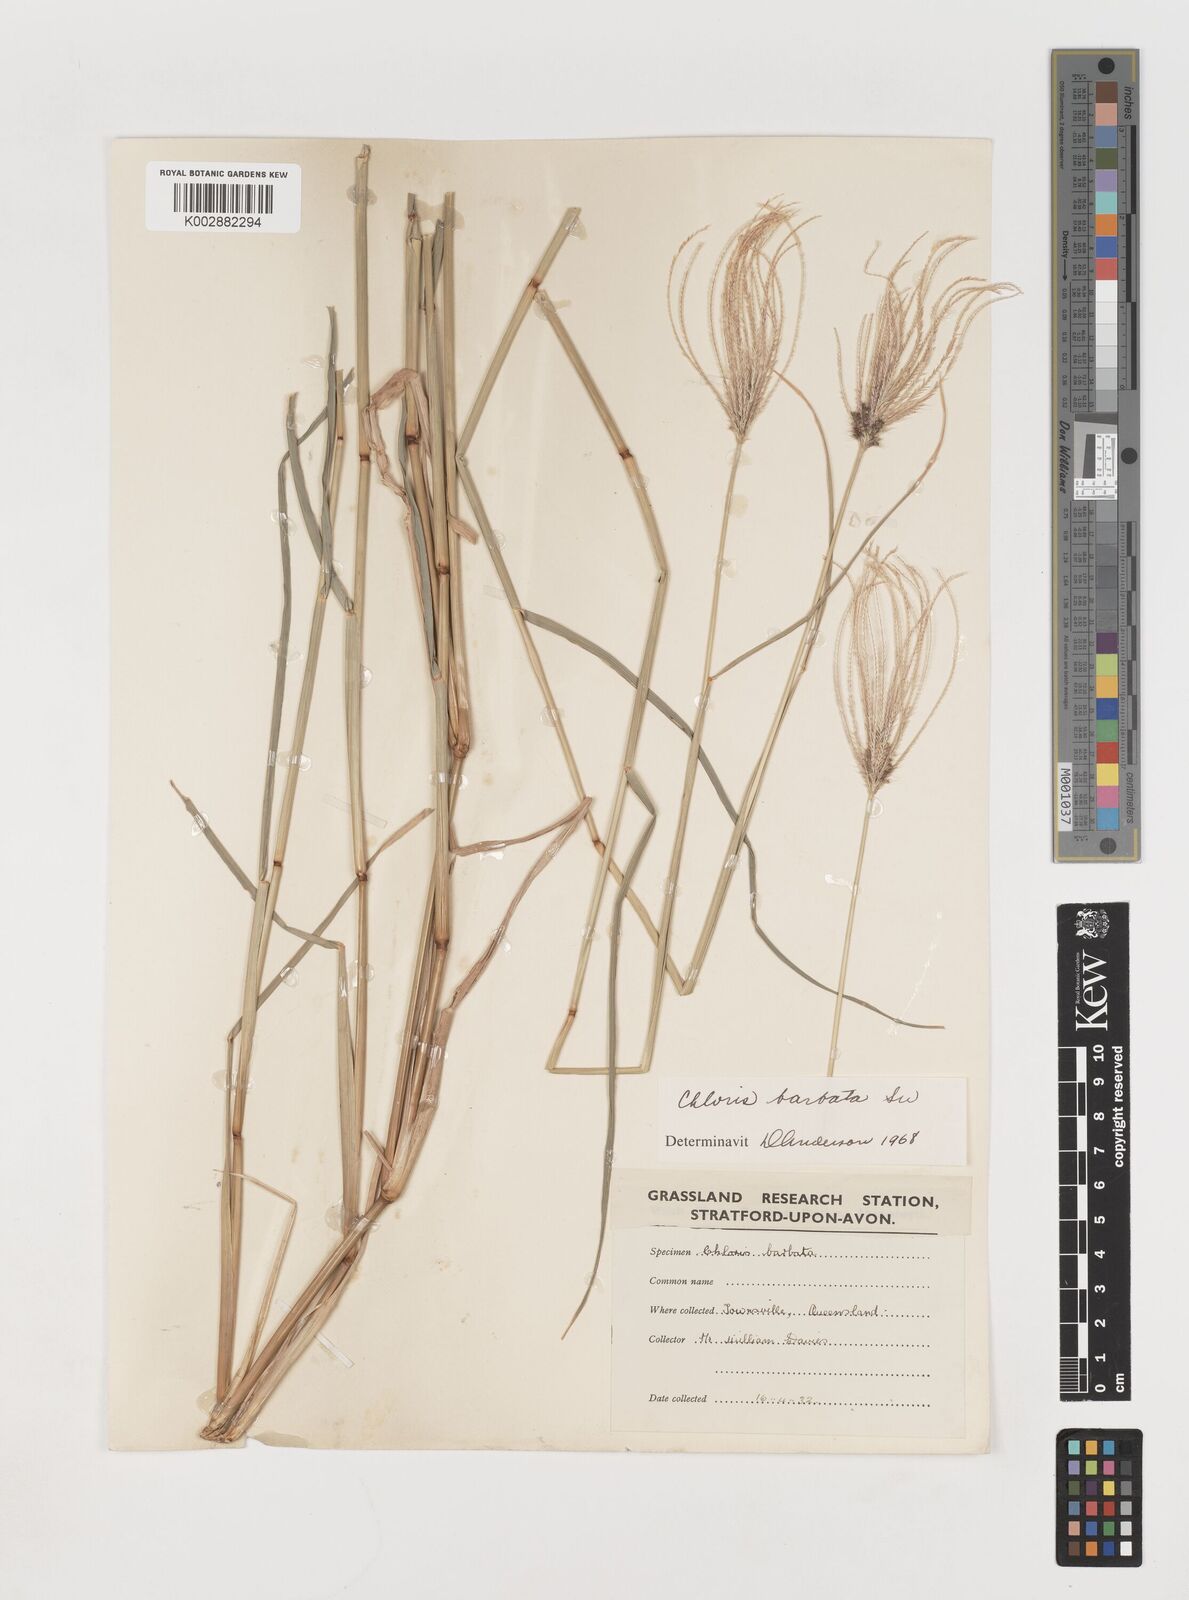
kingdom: Plantae
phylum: Tracheophyta
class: Liliopsida
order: Poales
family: Poaceae
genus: Chloris
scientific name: Chloris barbata
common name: Swollen fingergrass
